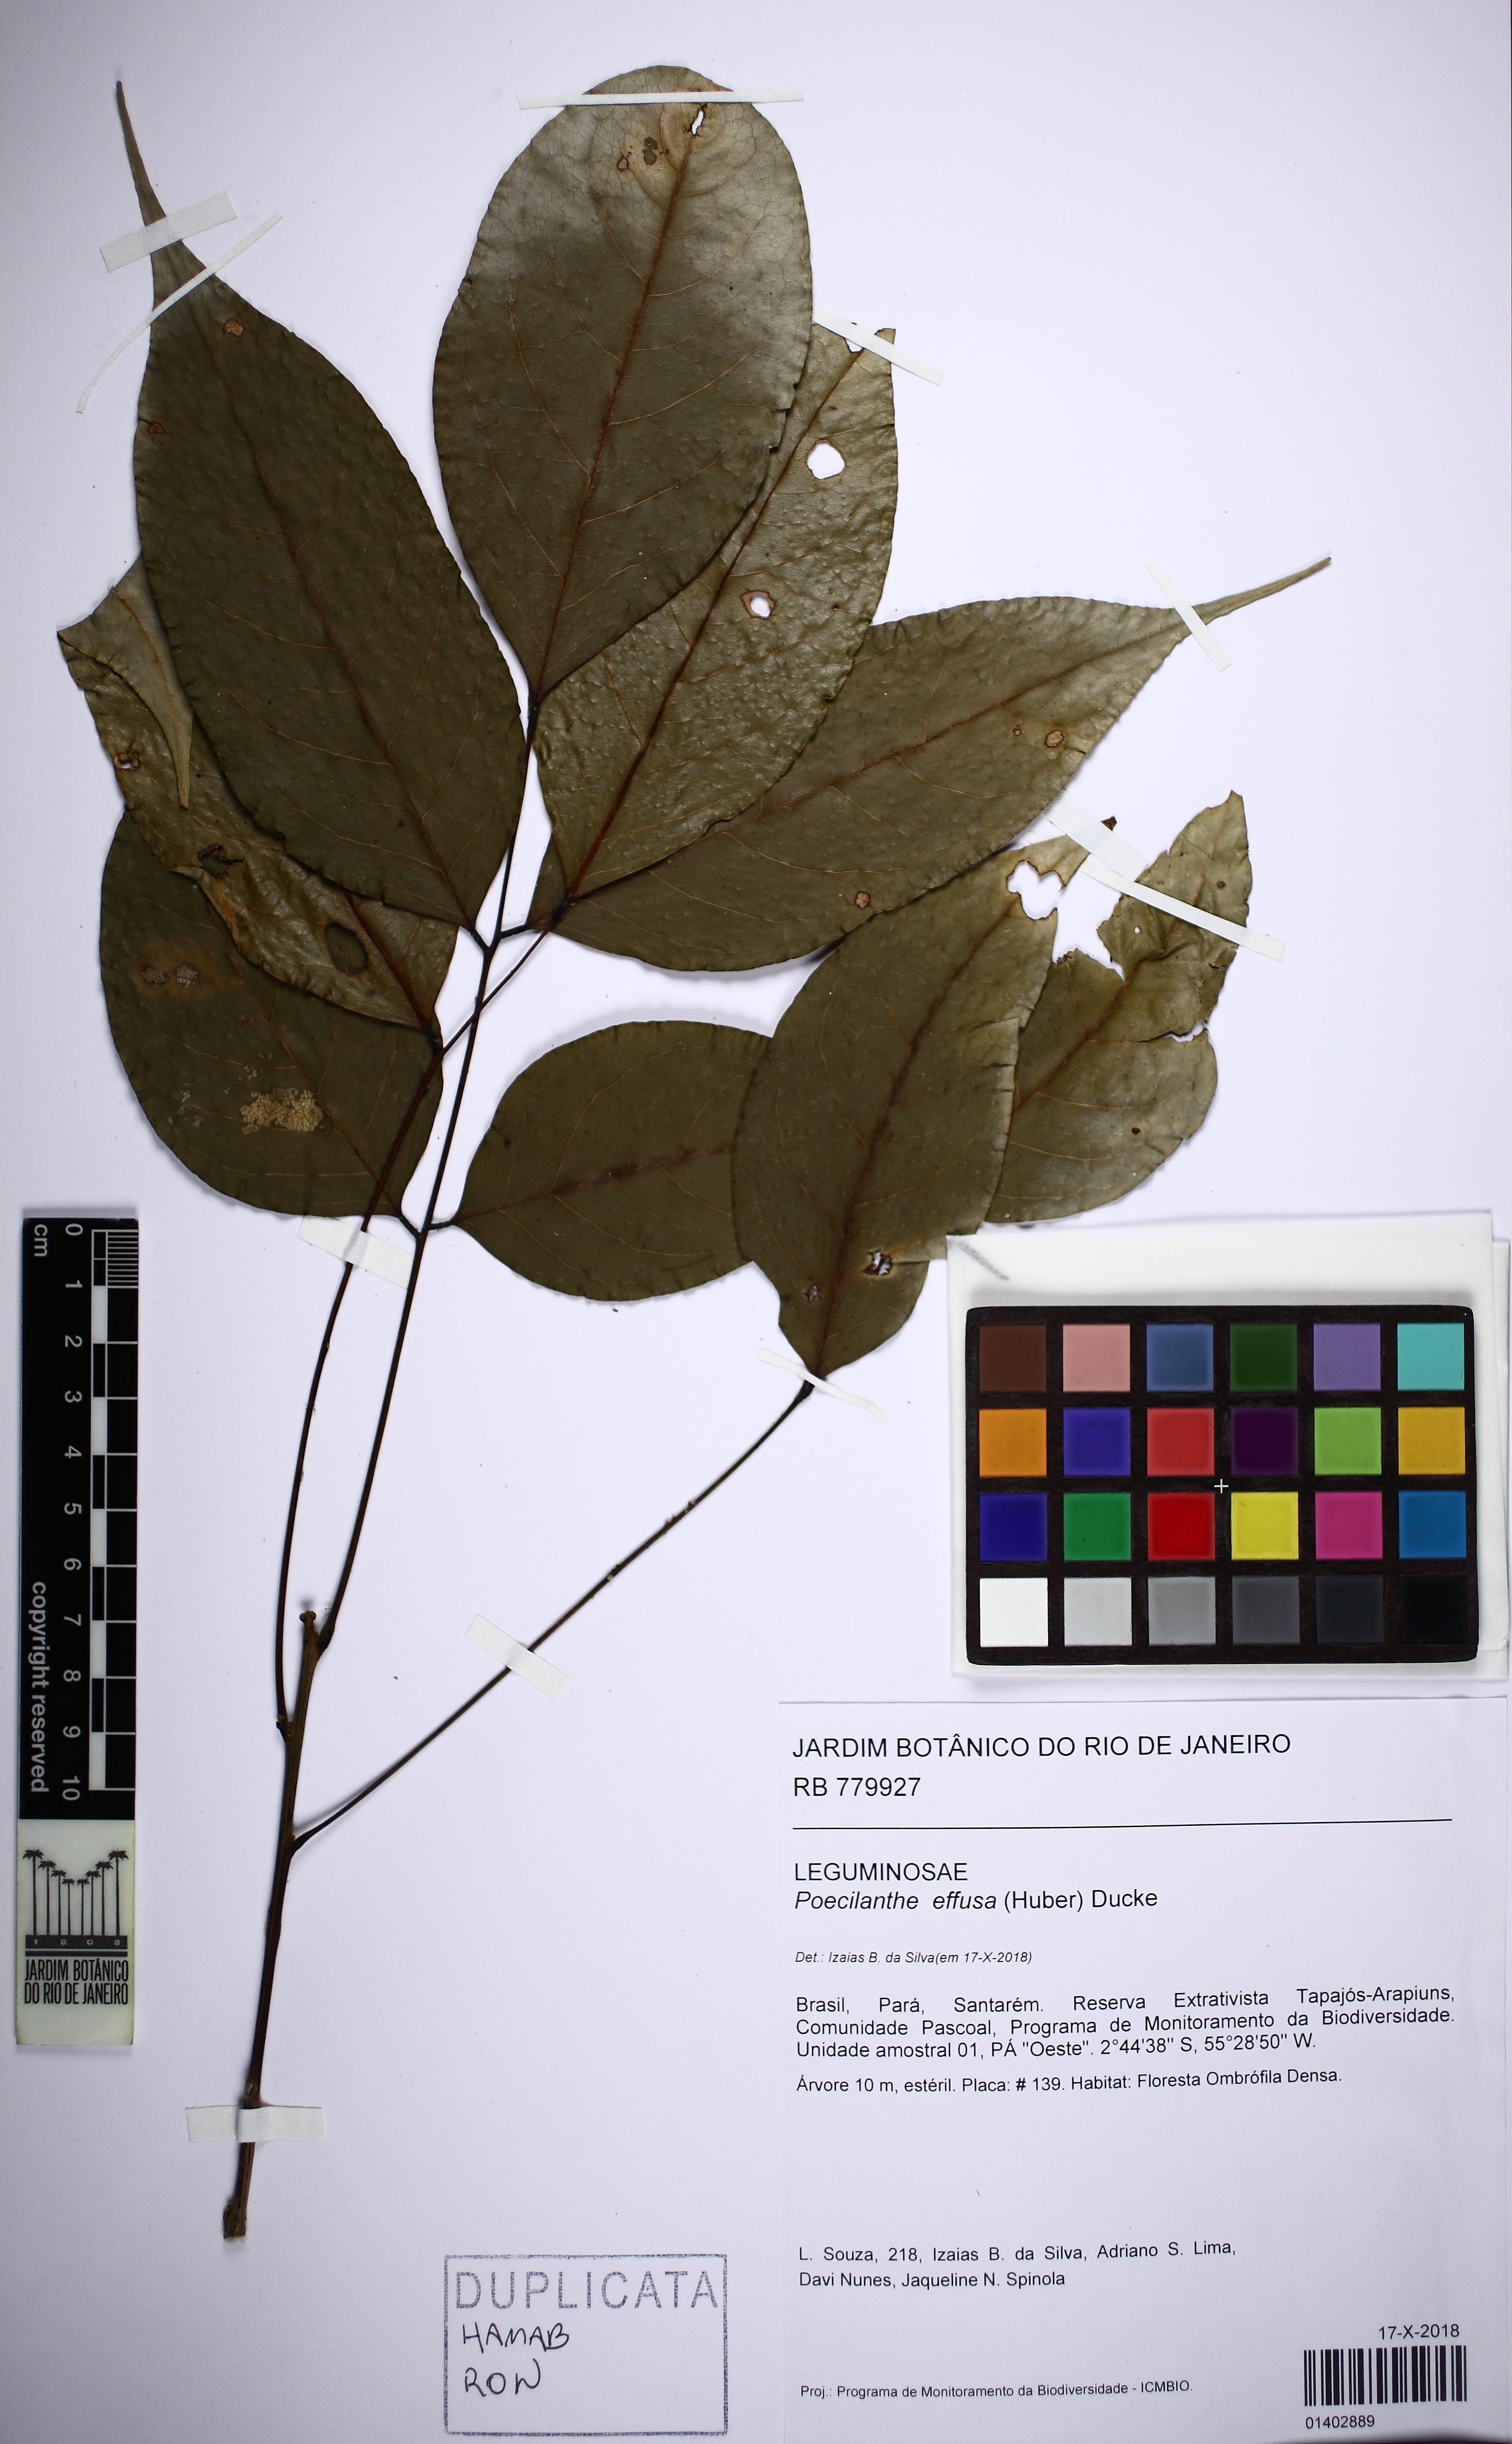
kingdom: Plantae
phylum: Tracheophyta
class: Magnoliopsida
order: Fabales
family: Fabaceae
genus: Amphiodon
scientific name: Amphiodon effusus
